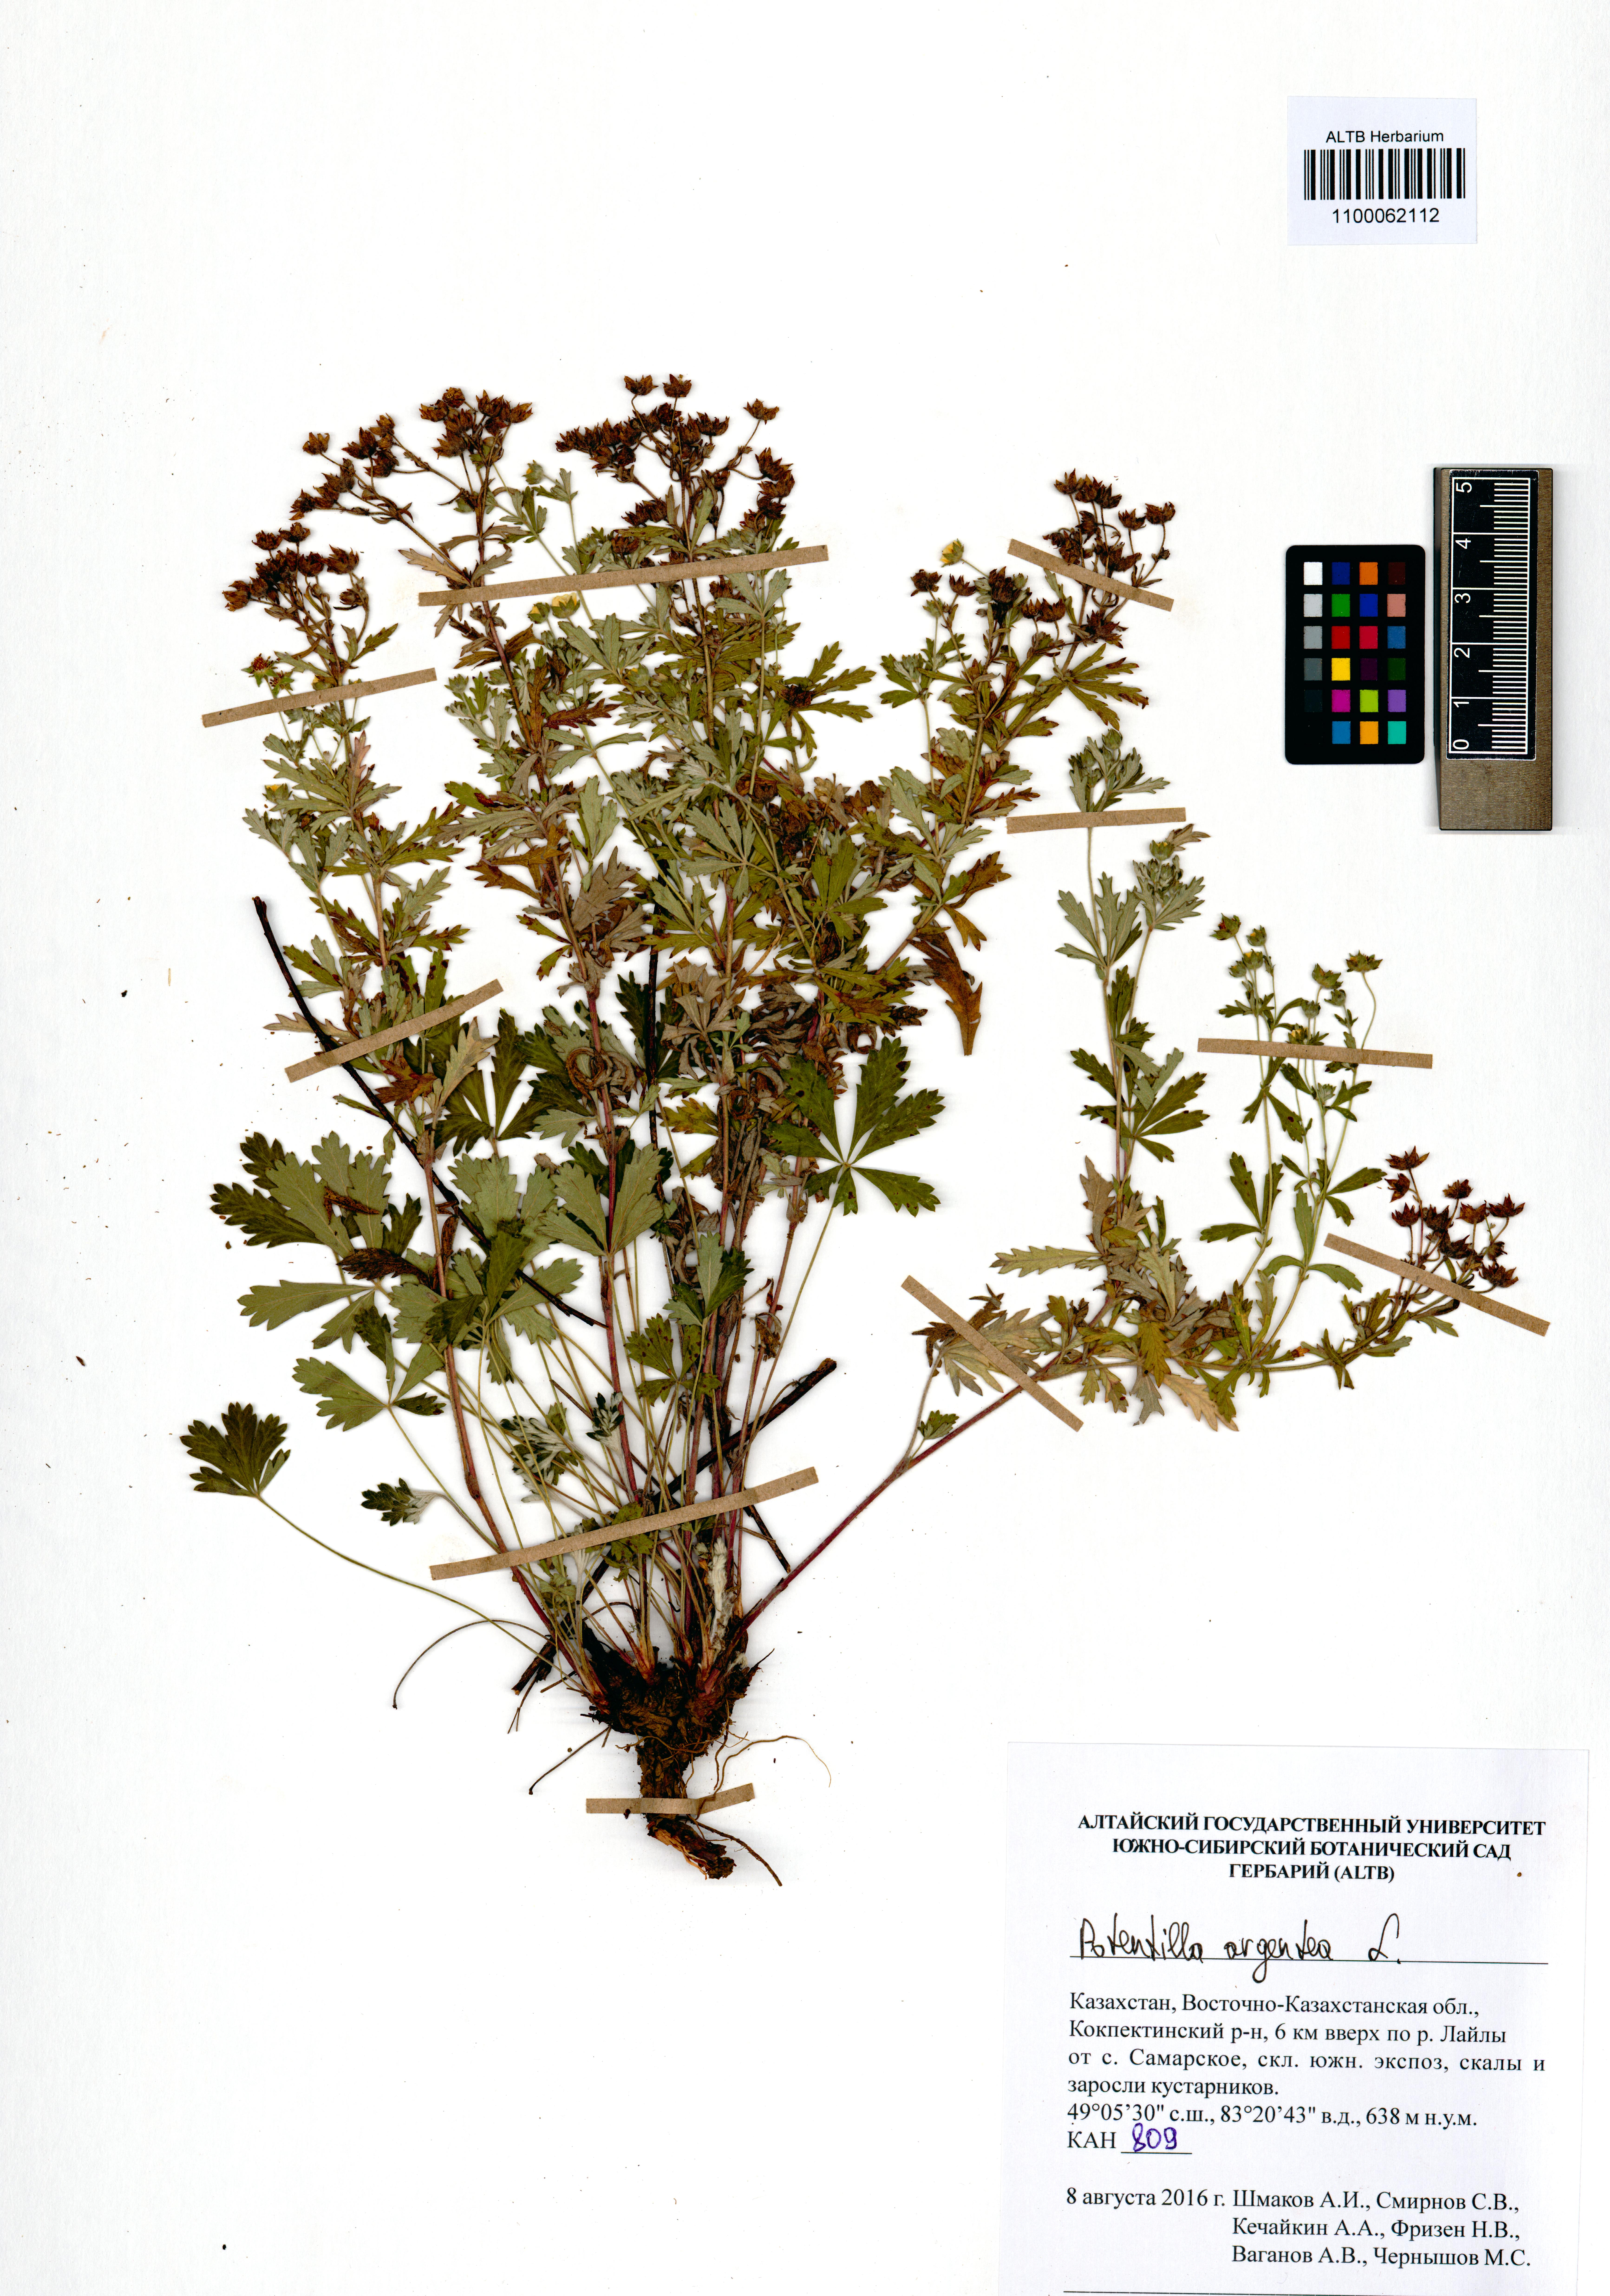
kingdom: Plantae
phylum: Tracheophyta
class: Magnoliopsida
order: Rosales
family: Rosaceae
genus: Potentilla
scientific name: Potentilla argentea
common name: Hoary cinquefoil
